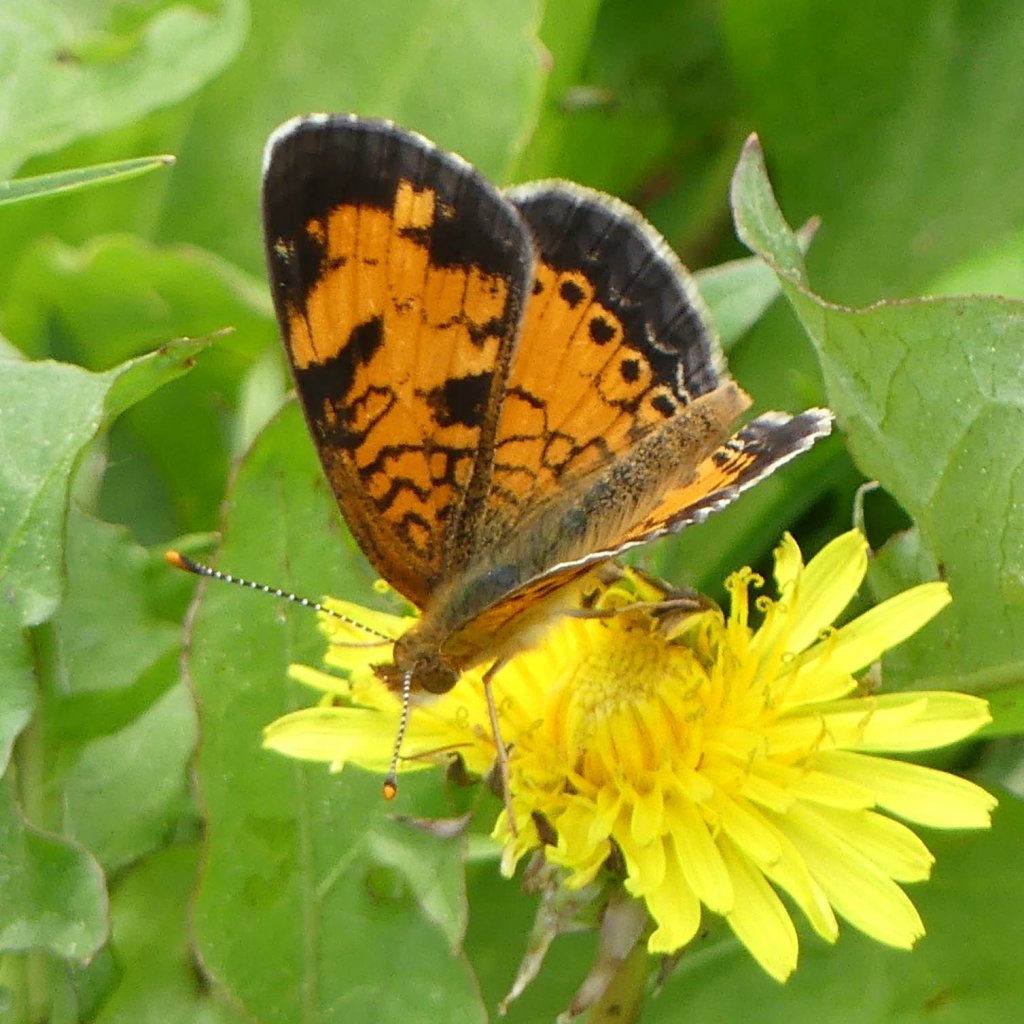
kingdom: Animalia
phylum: Arthropoda
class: Insecta
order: Lepidoptera
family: Nymphalidae
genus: Phyciodes
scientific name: Phyciodes tharos
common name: Northern Crescent
